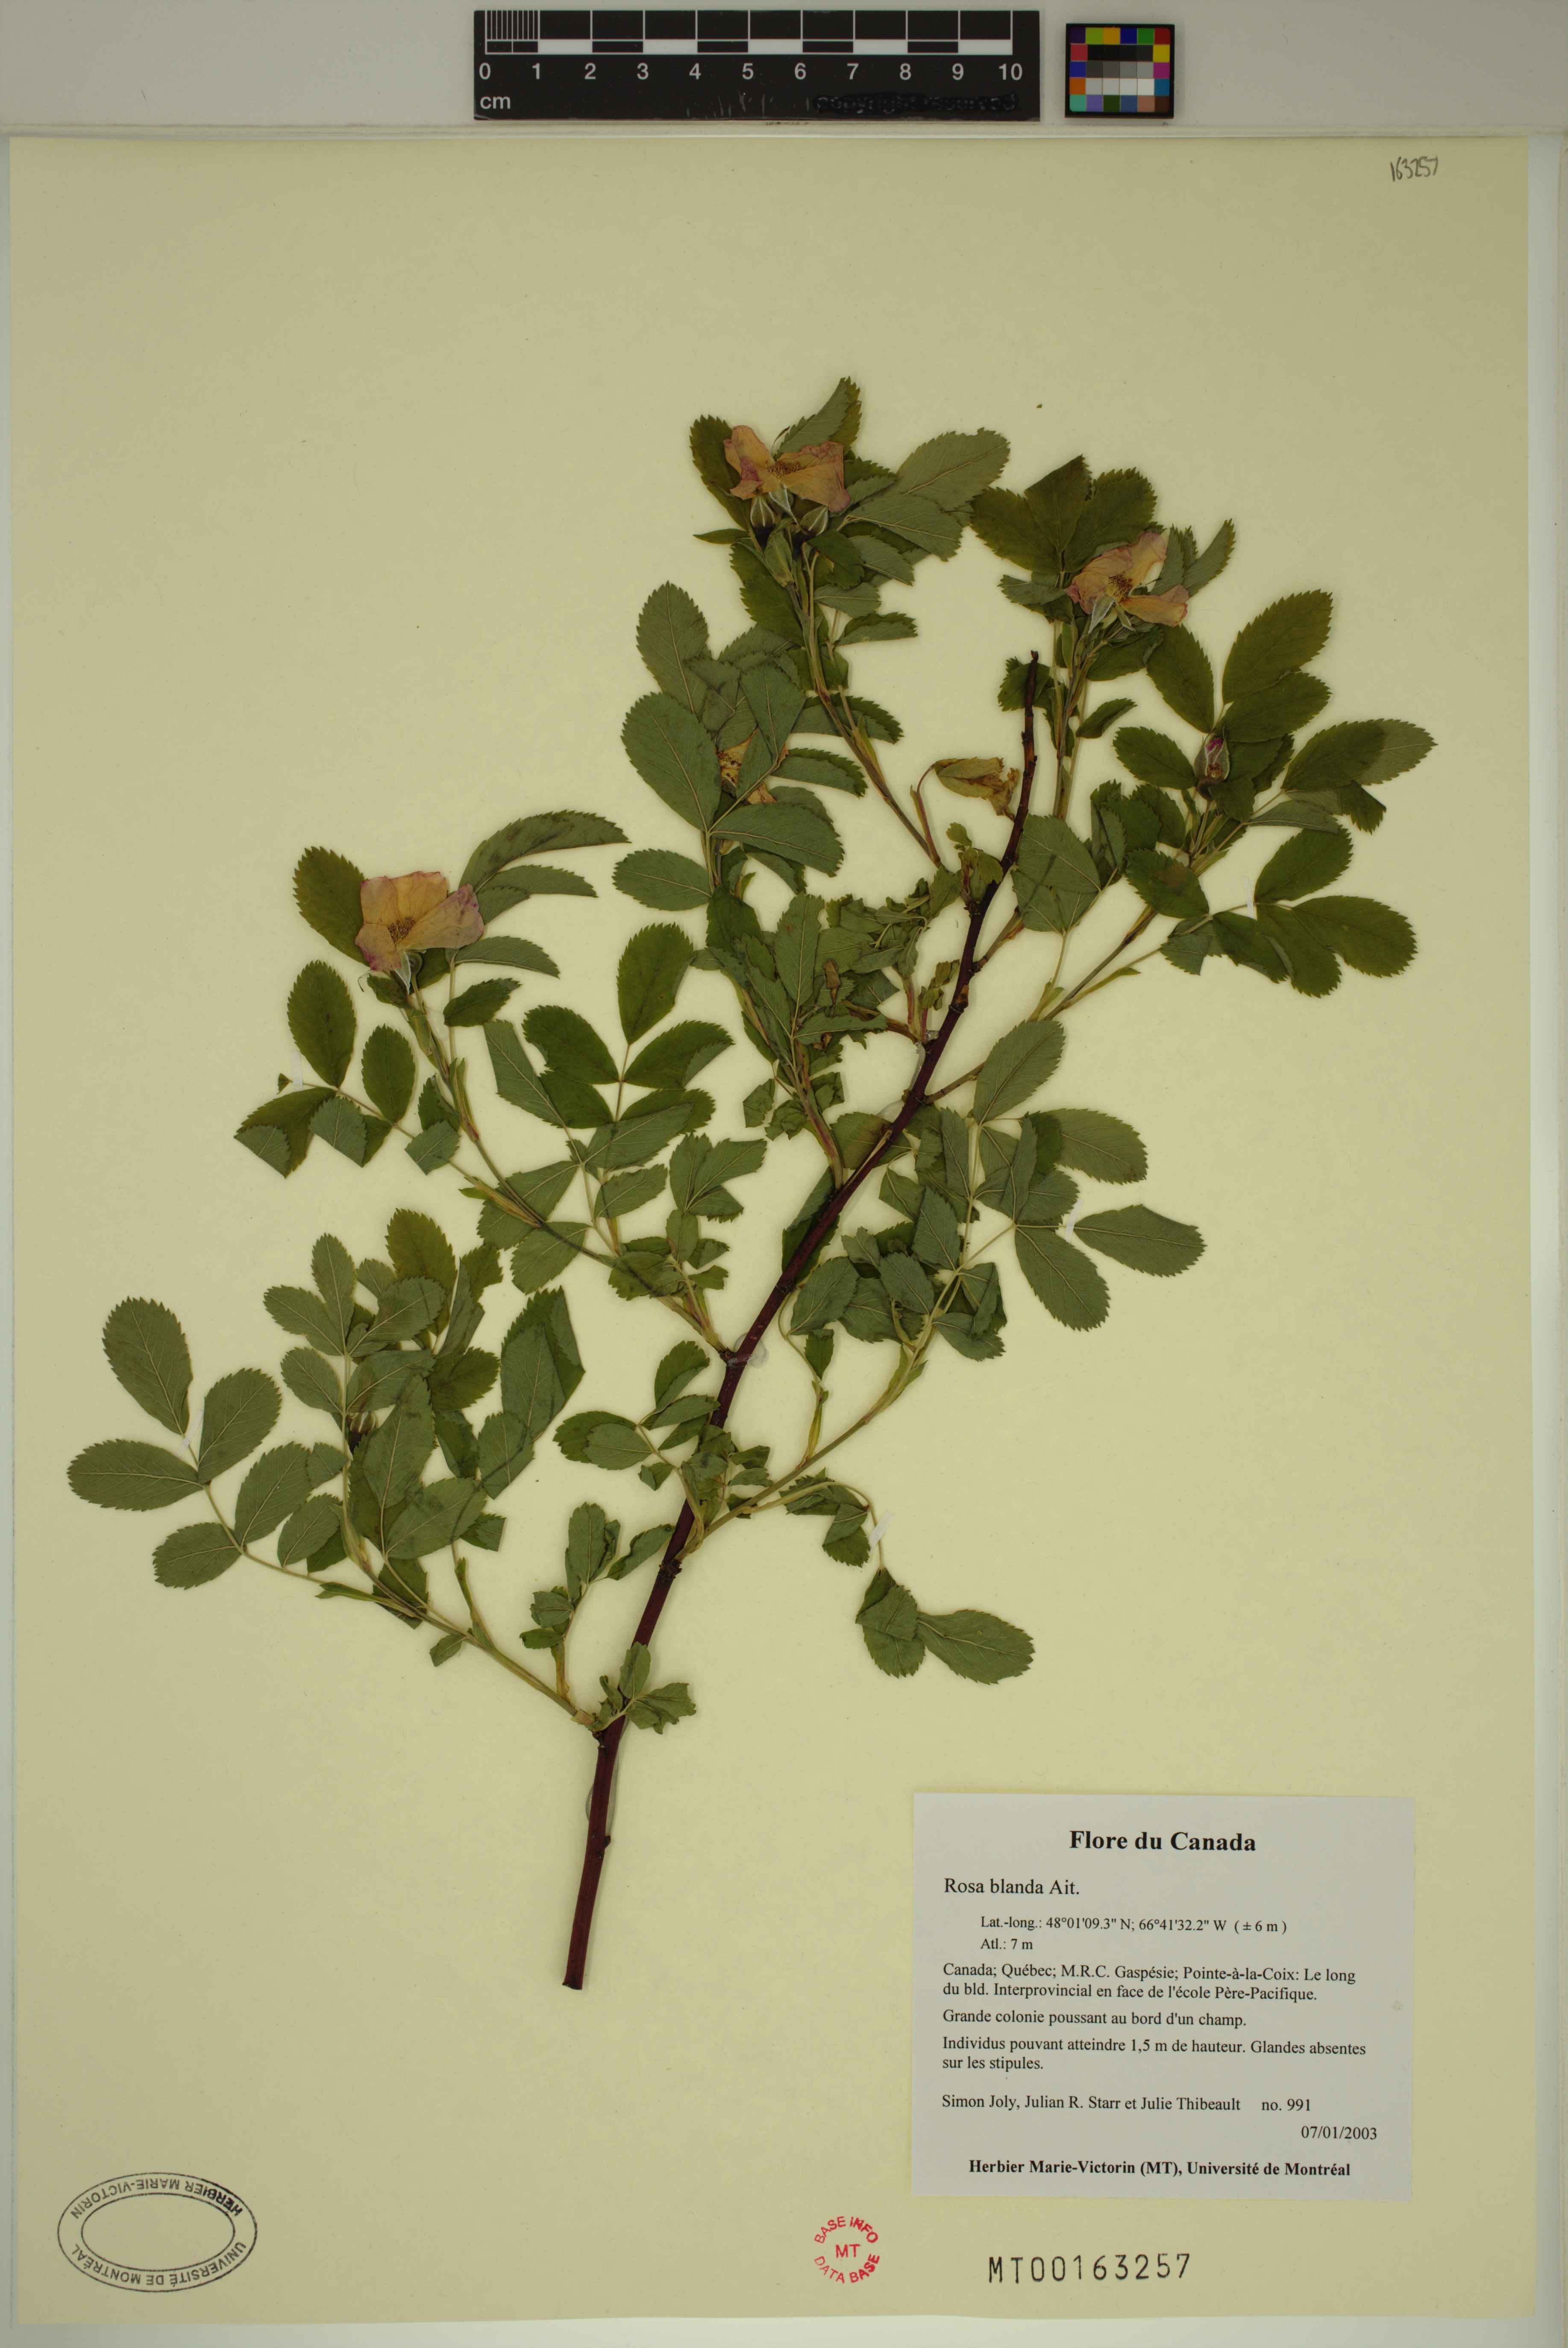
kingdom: Plantae
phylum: Tracheophyta
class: Magnoliopsida
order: Rosales
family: Rosaceae
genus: Rosa
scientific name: Rosa blanda
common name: Smooth rose
